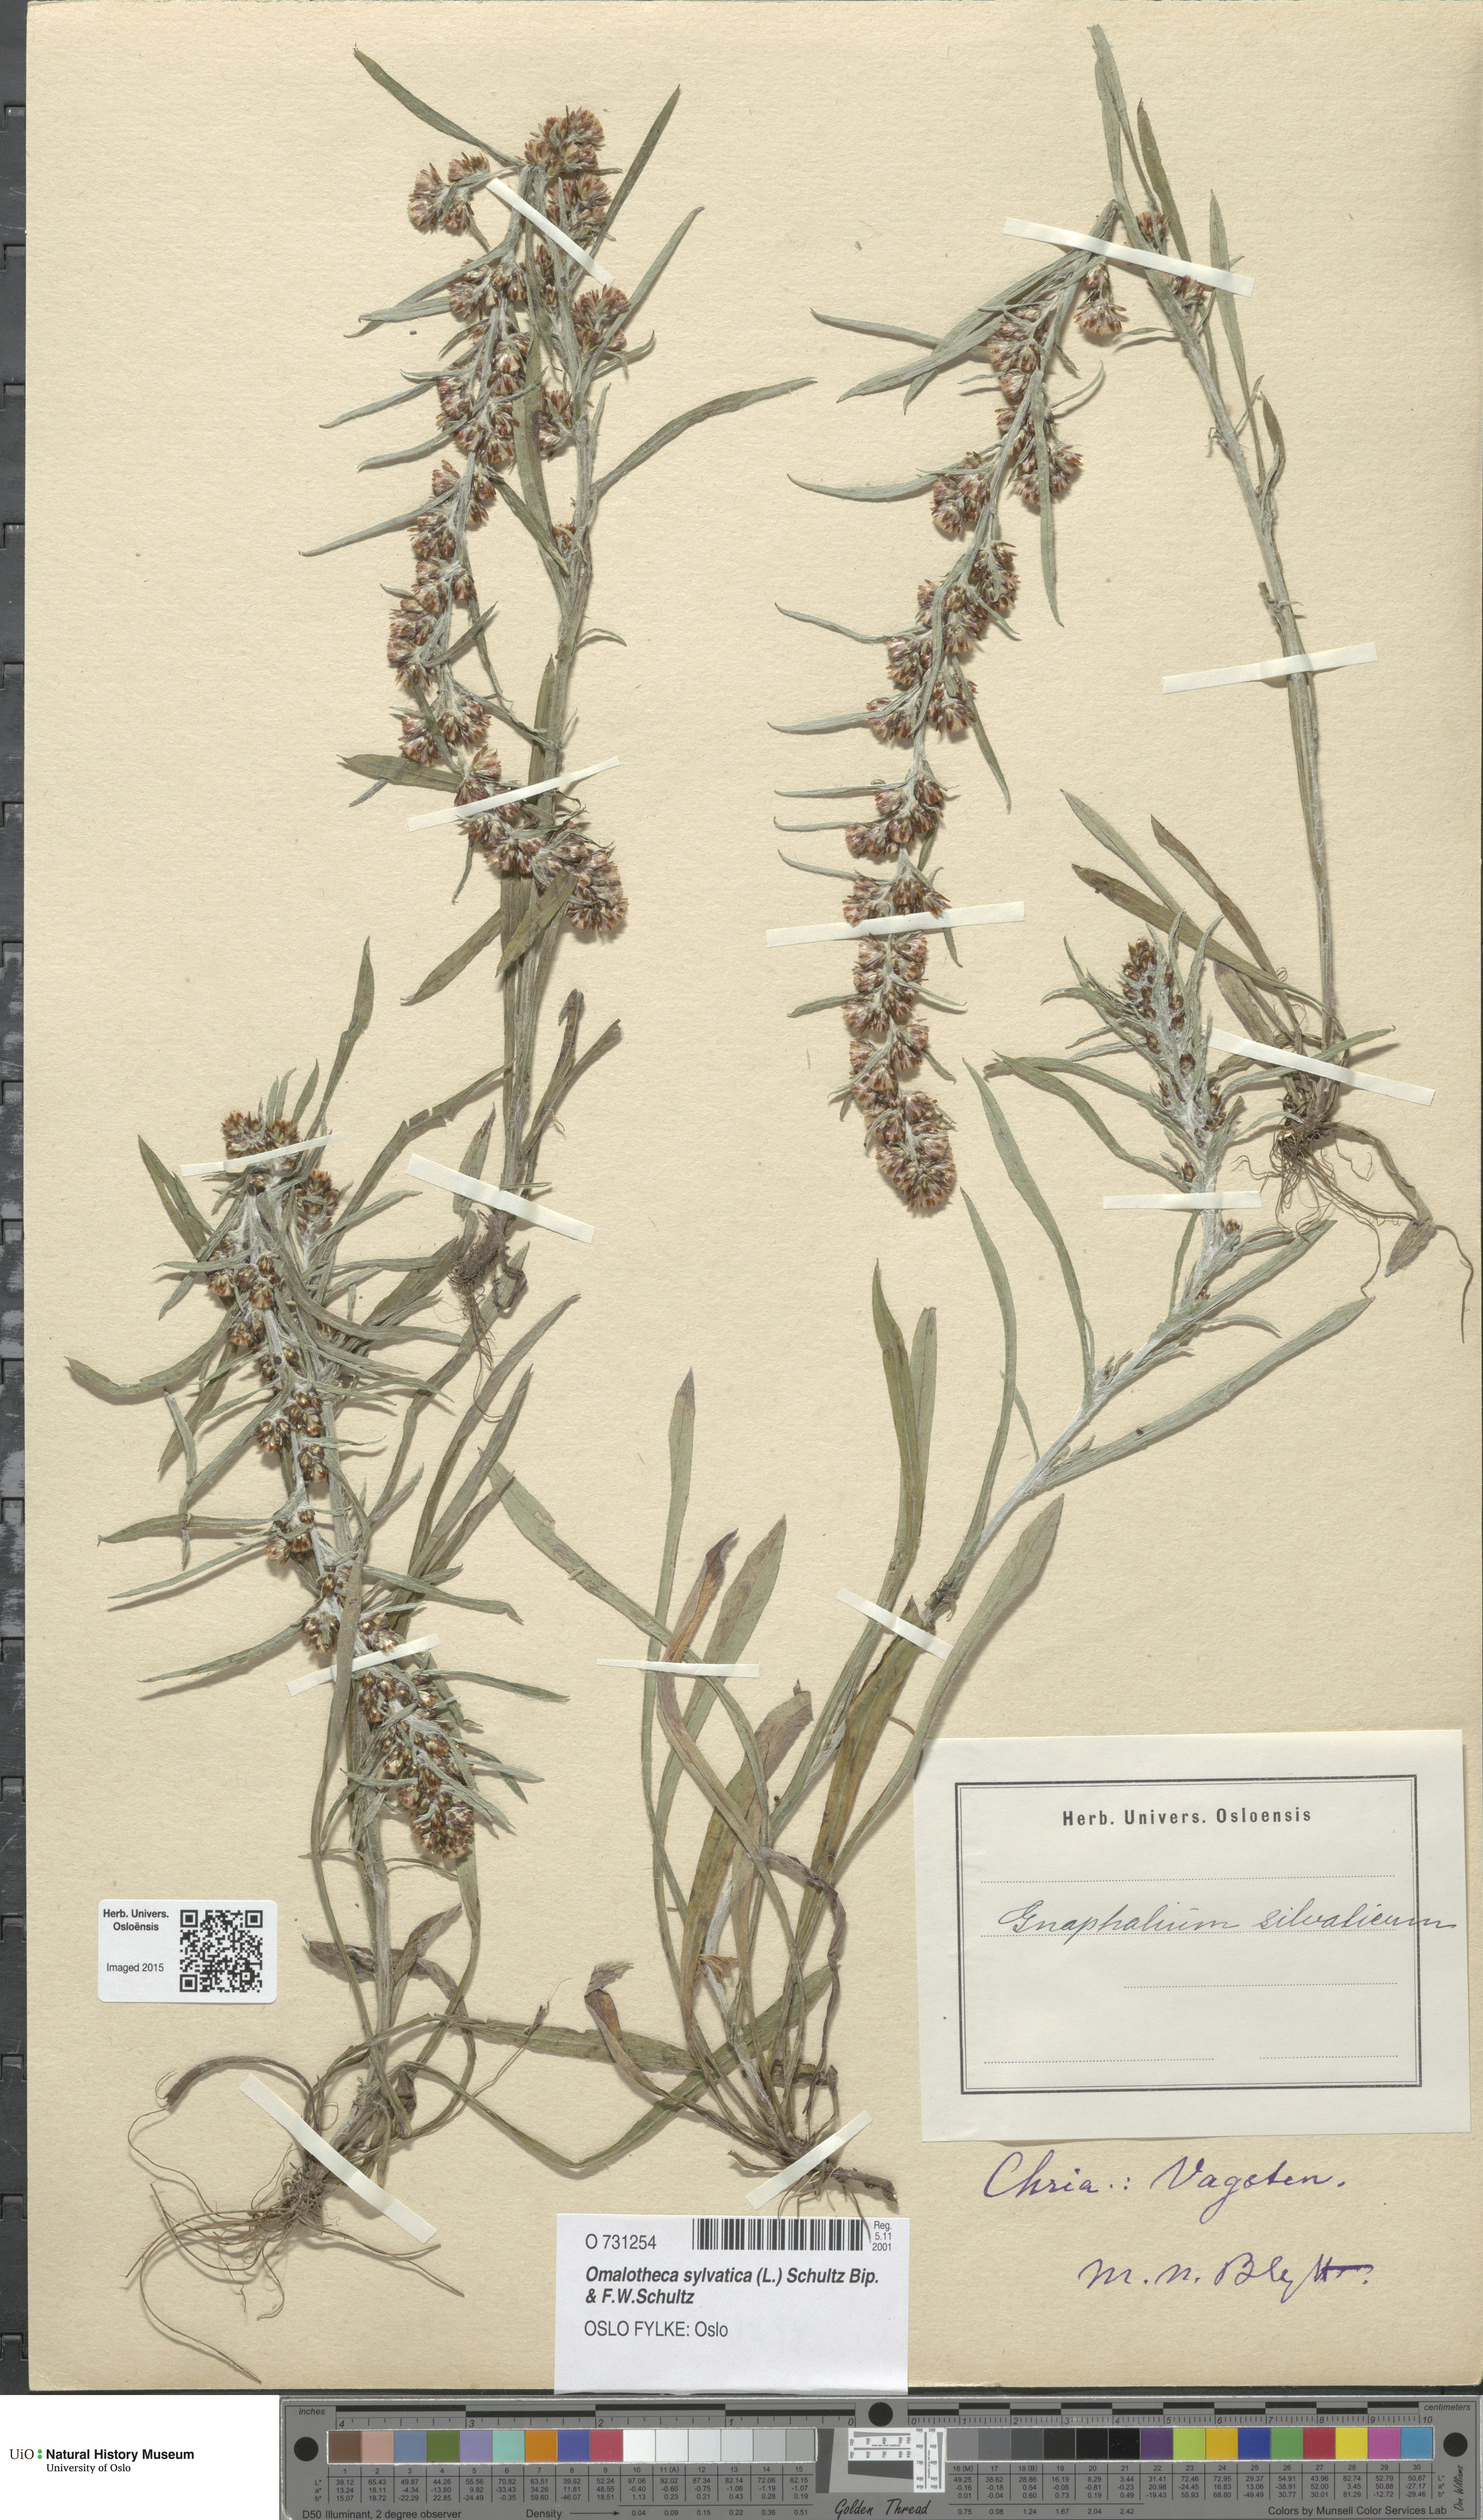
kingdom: Plantae
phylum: Tracheophyta
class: Magnoliopsida
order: Asterales
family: Asteraceae
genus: Omalotheca
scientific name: Omalotheca sylvatica
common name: Heath cudweed
